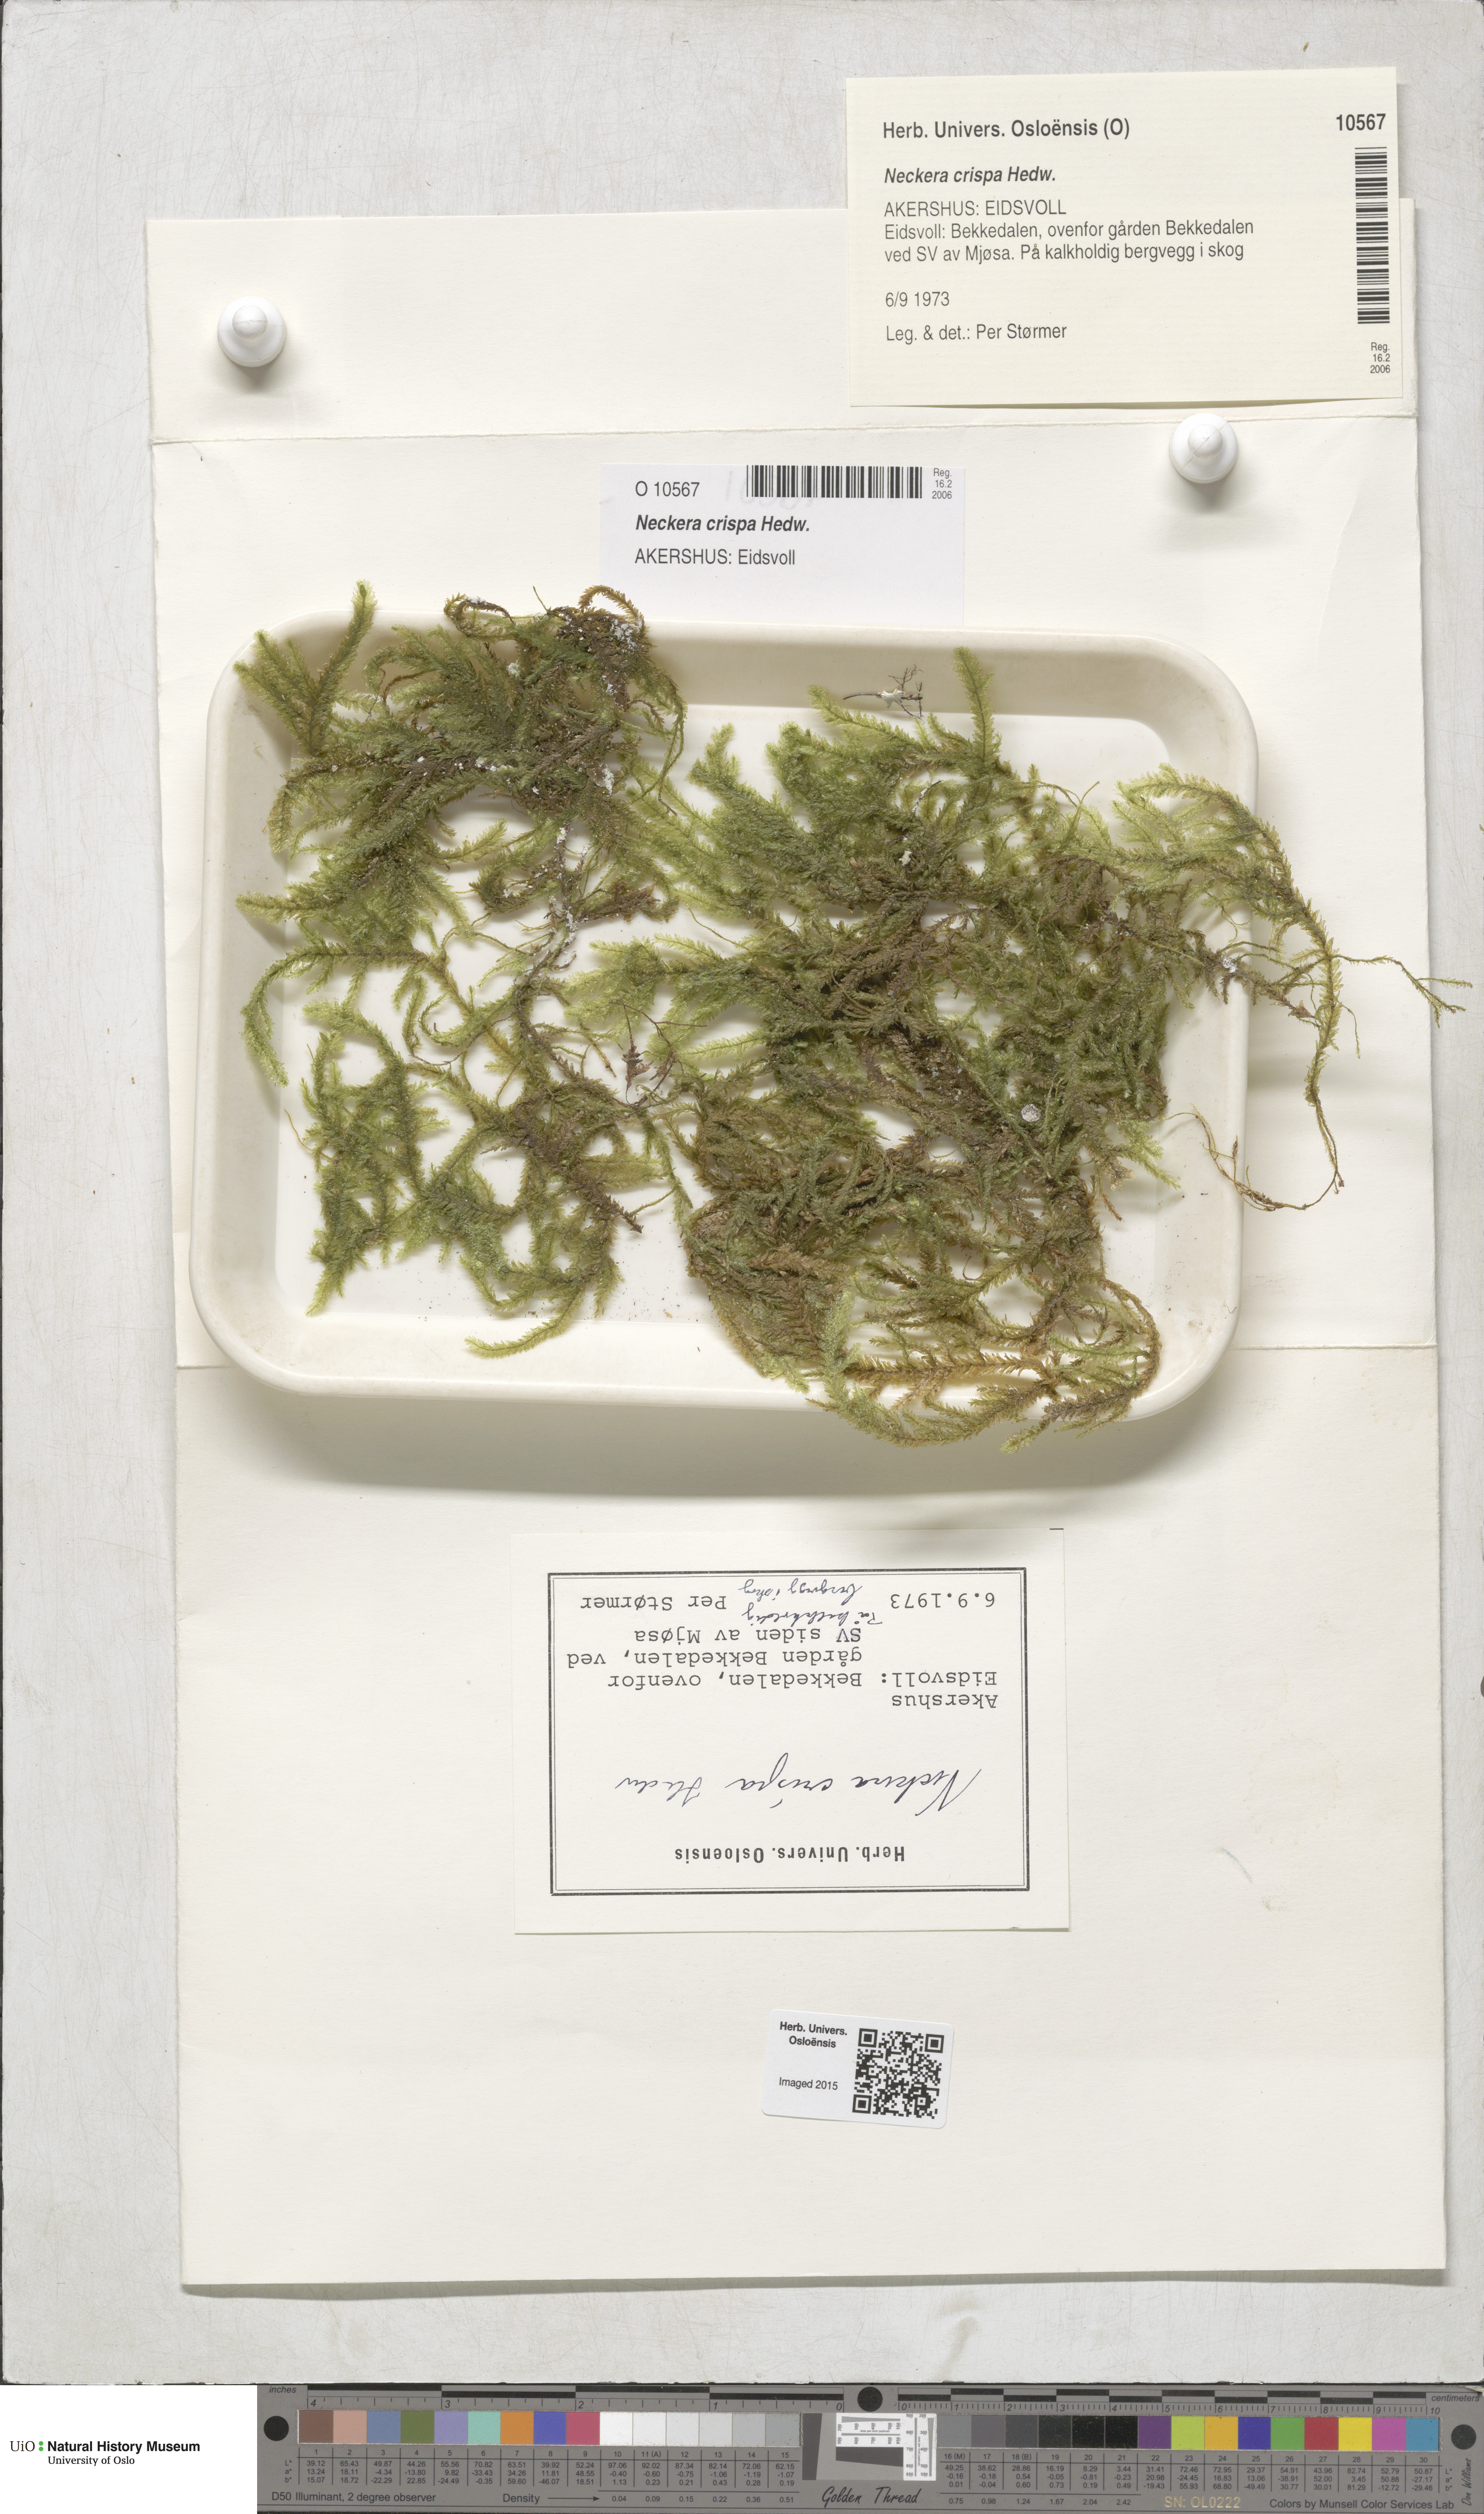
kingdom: Plantae
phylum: Bryophyta
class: Bryopsida
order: Hypnales
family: Neckeraceae
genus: Exsertotheca
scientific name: Exsertotheca crispa
